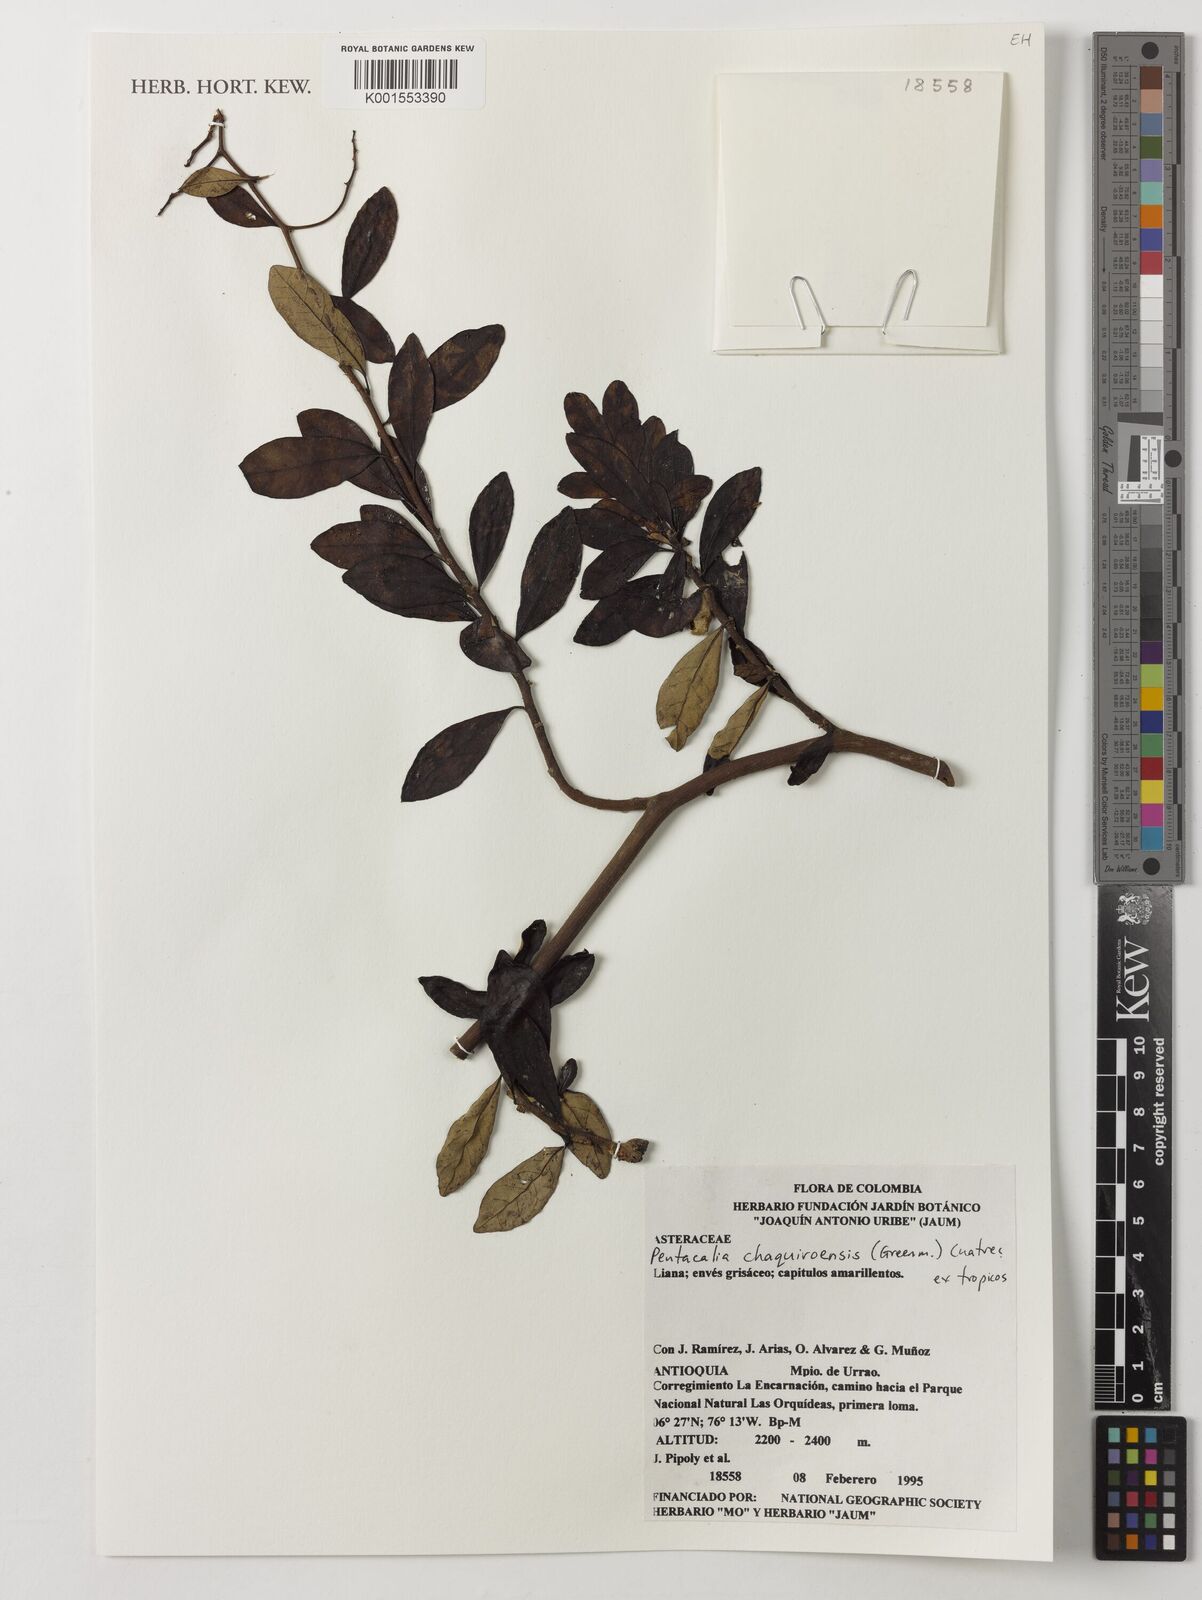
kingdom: Plantae
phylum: Tracheophyta
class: Magnoliopsida
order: Asterales
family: Asteraceae
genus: Pentacalia
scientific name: Pentacalia chaquiroensis
